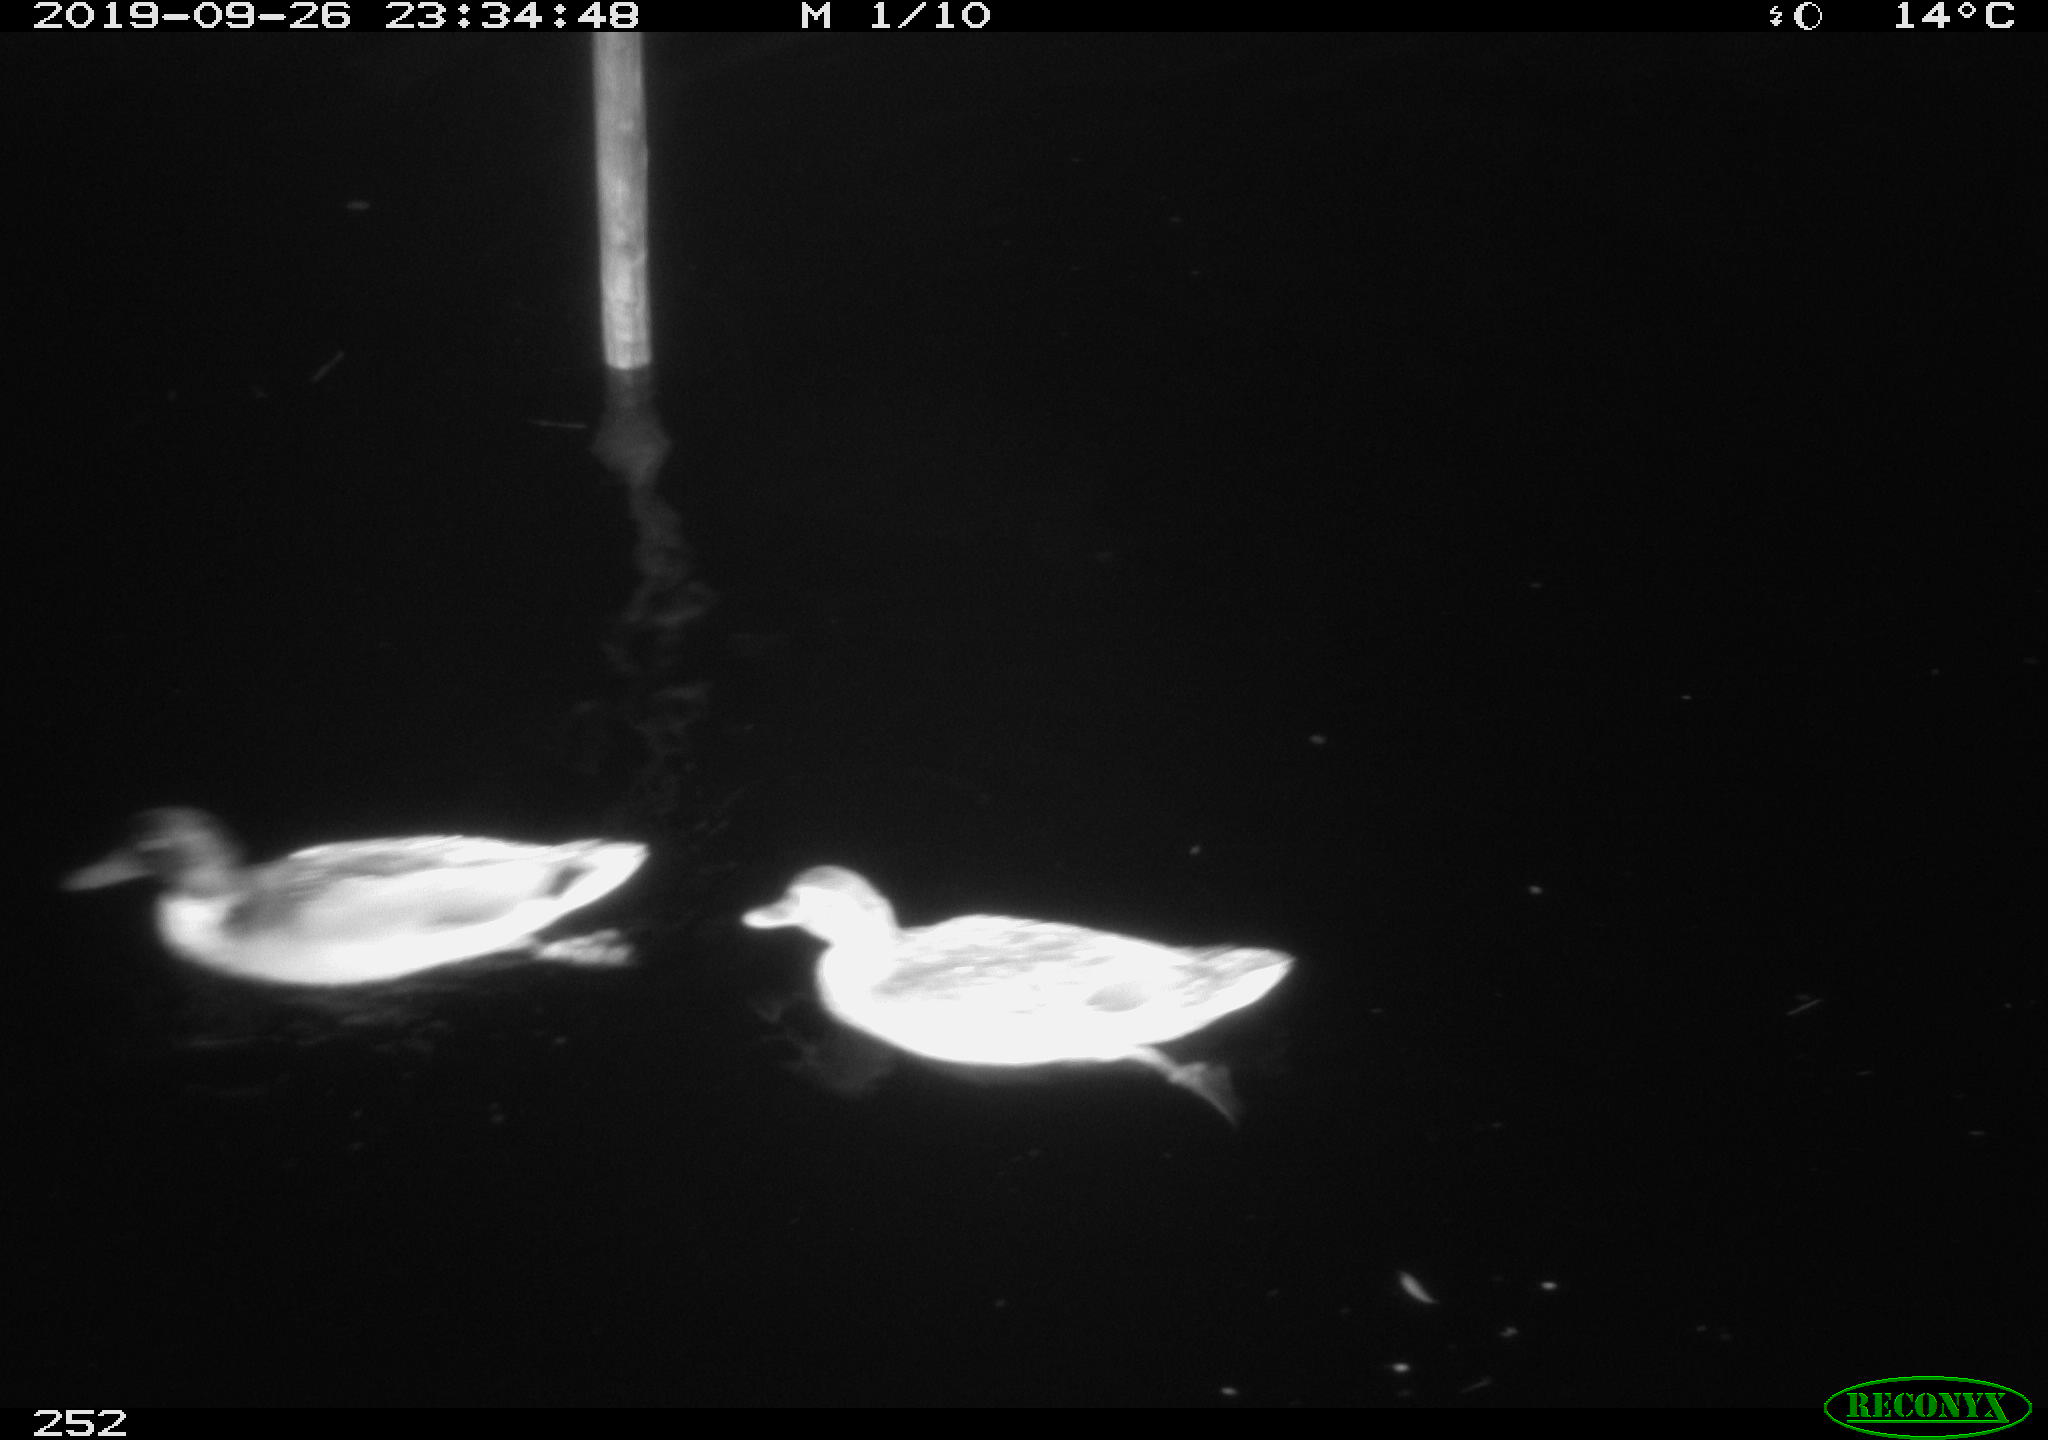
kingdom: Animalia
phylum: Chordata
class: Aves
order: Anseriformes
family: Anatidae
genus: Anas
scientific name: Anas platyrhynchos
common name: Mallard
